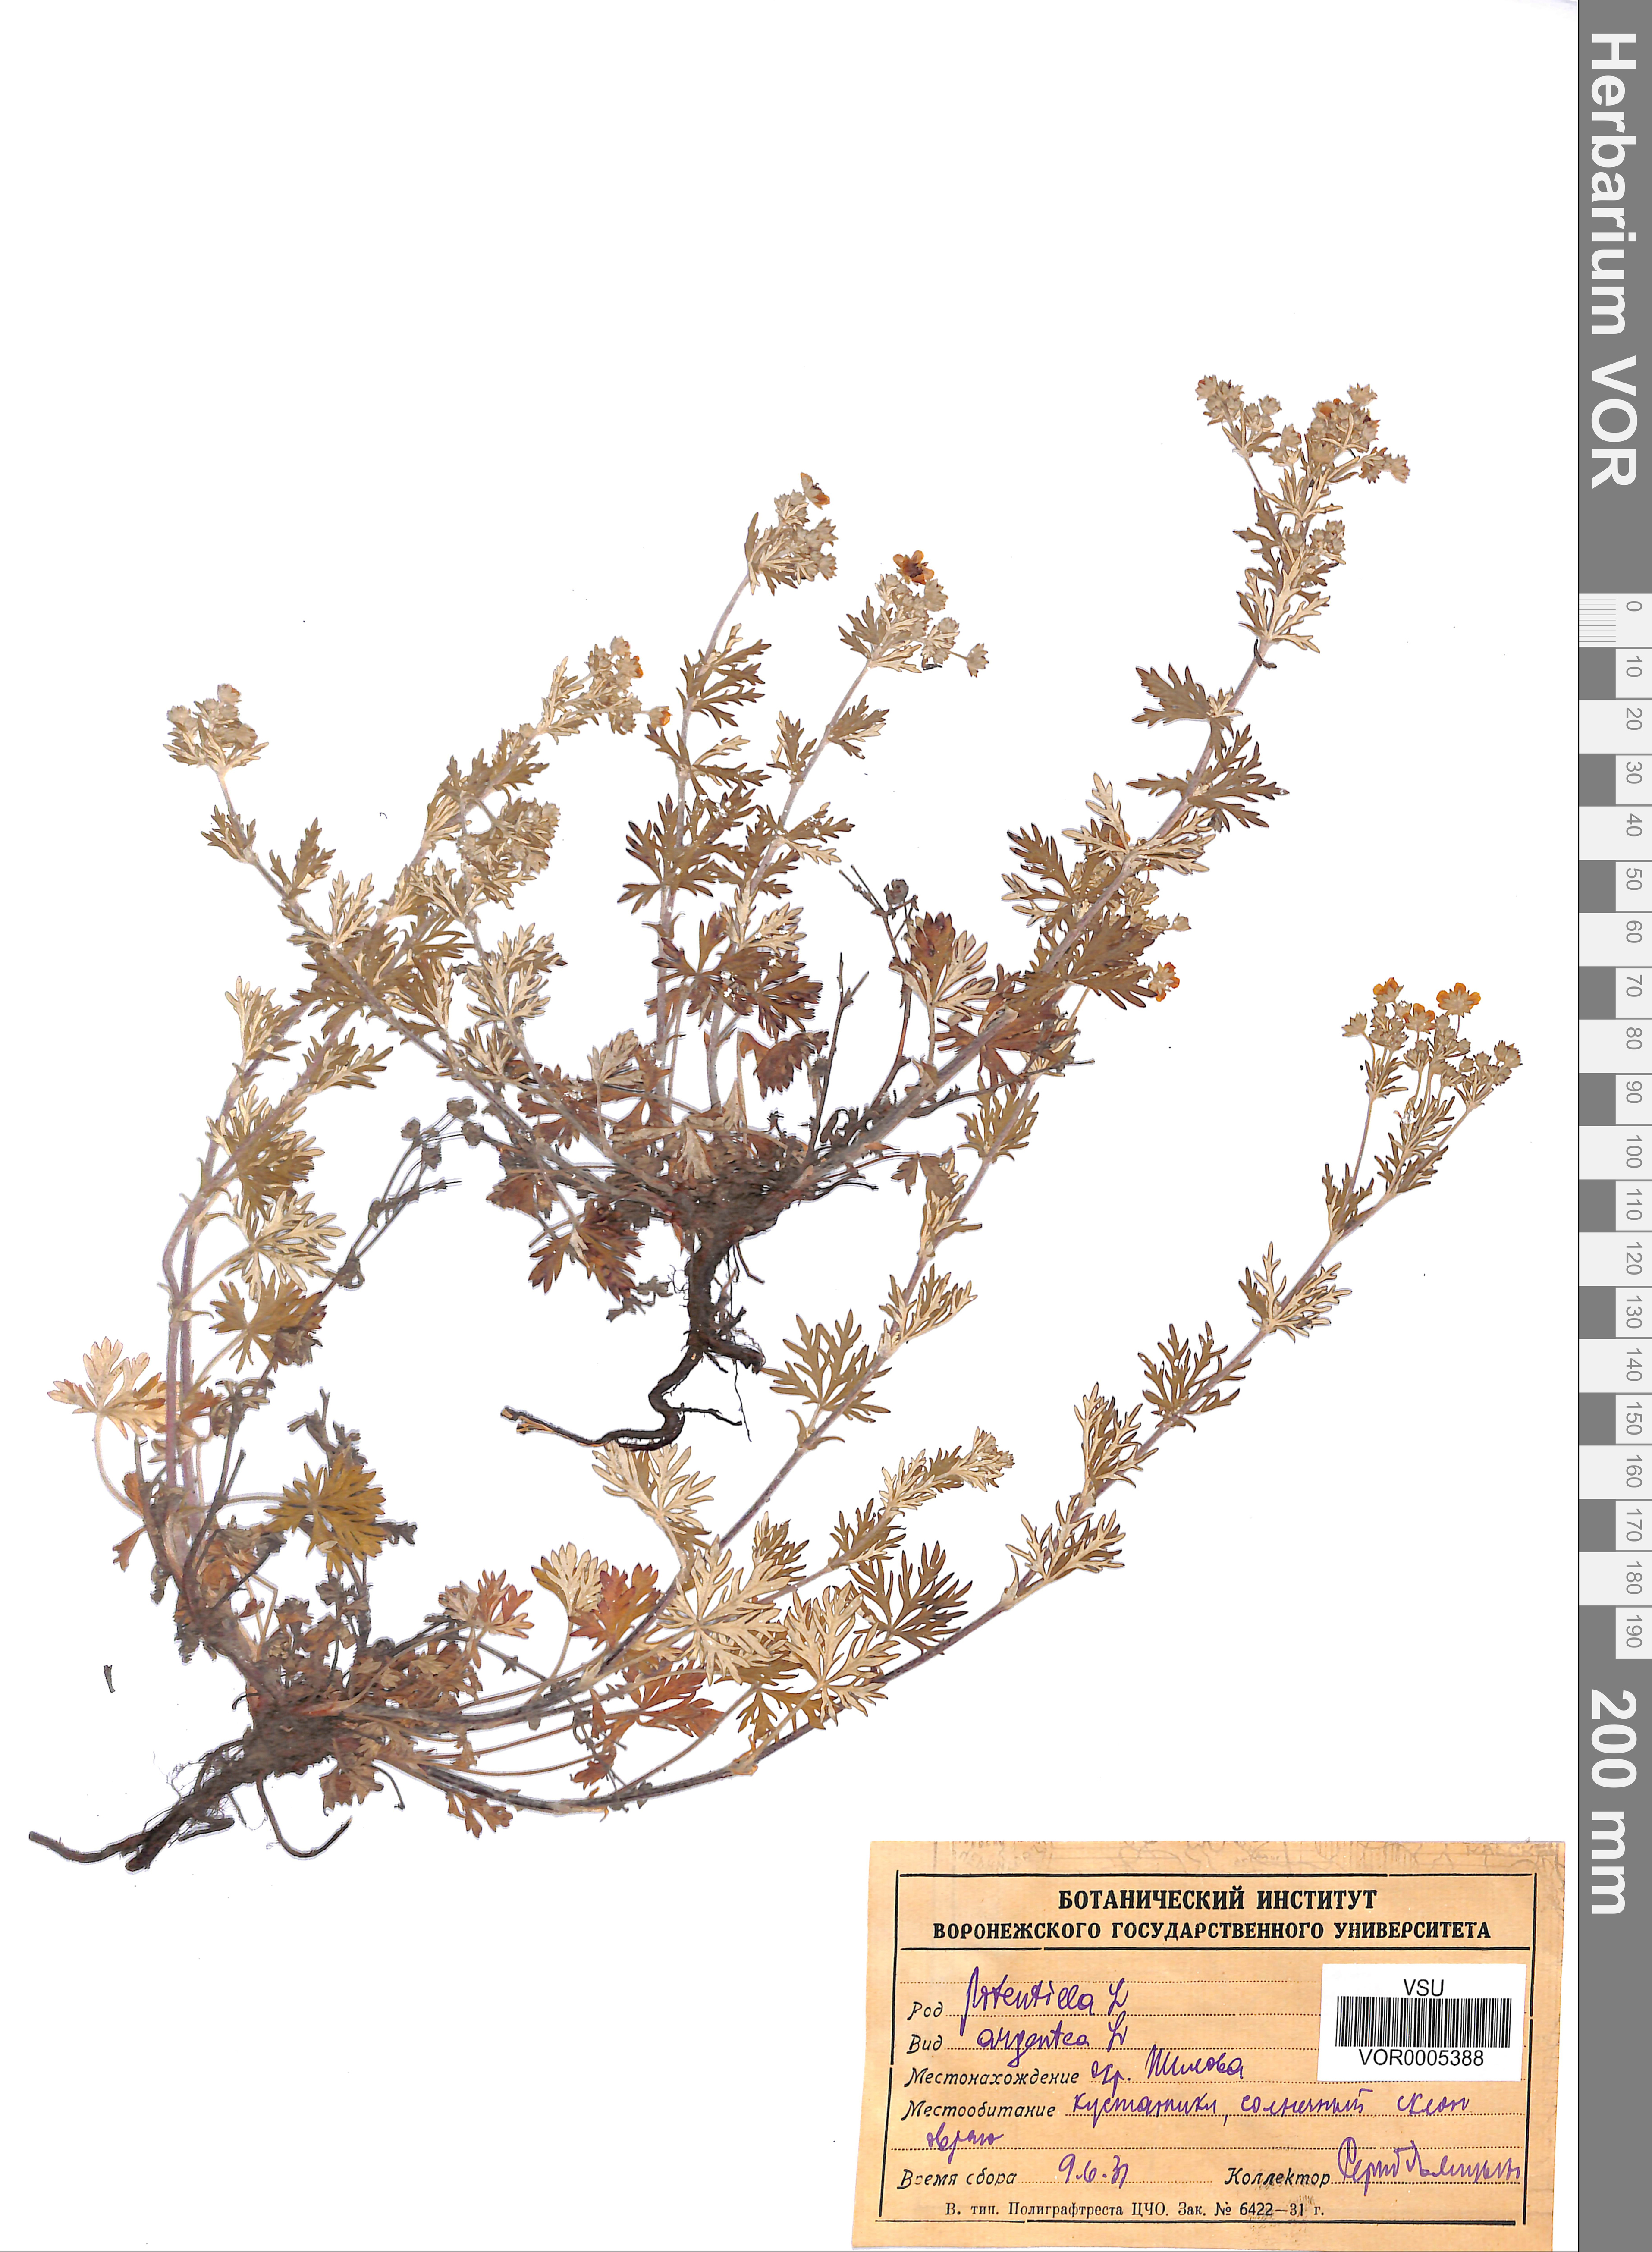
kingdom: Plantae
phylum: Tracheophyta
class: Magnoliopsida
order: Rosales
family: Rosaceae
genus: Potentilla
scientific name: Potentilla argentea
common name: Hoary cinquefoil
